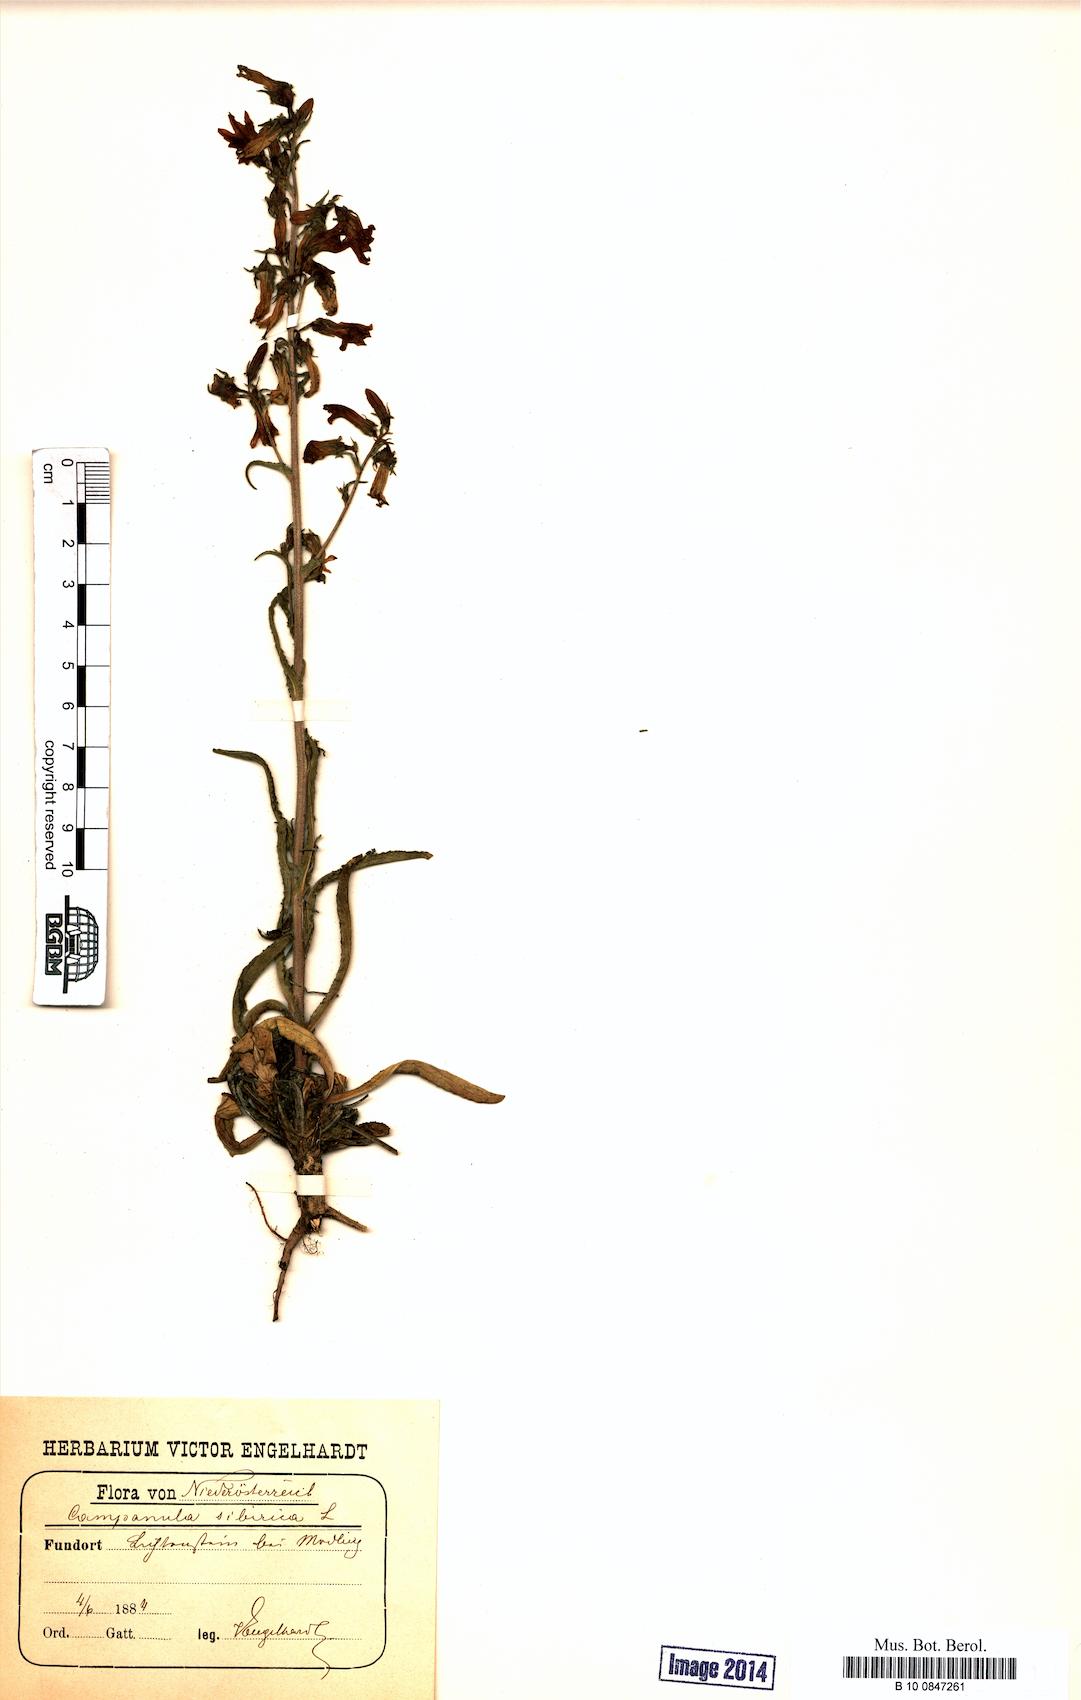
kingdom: Plantae
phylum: Tracheophyta
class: Magnoliopsida
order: Asterales
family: Campanulaceae
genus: Campanula
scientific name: Campanula sibirica
